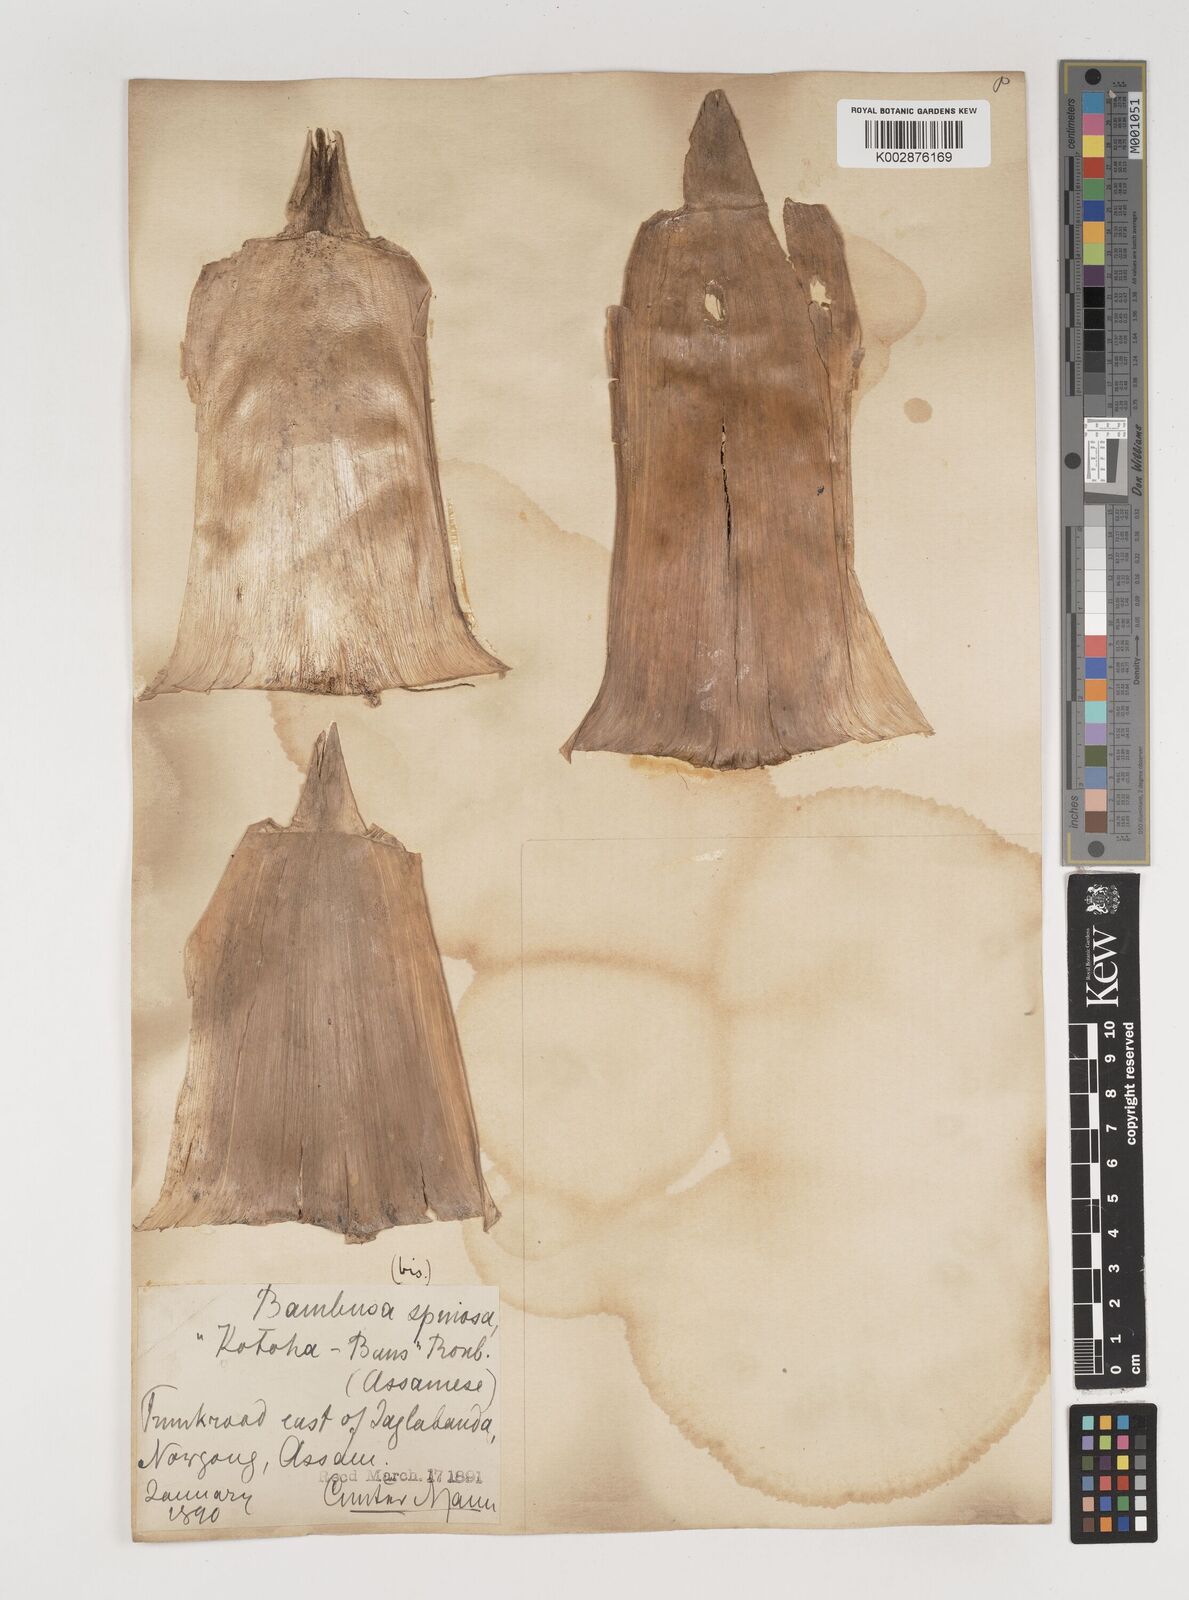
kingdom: Plantae
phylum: Tracheophyta
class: Liliopsida
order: Poales
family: Poaceae
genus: Bambusa
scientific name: Bambusa bambos
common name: Indian thorny bamboo
